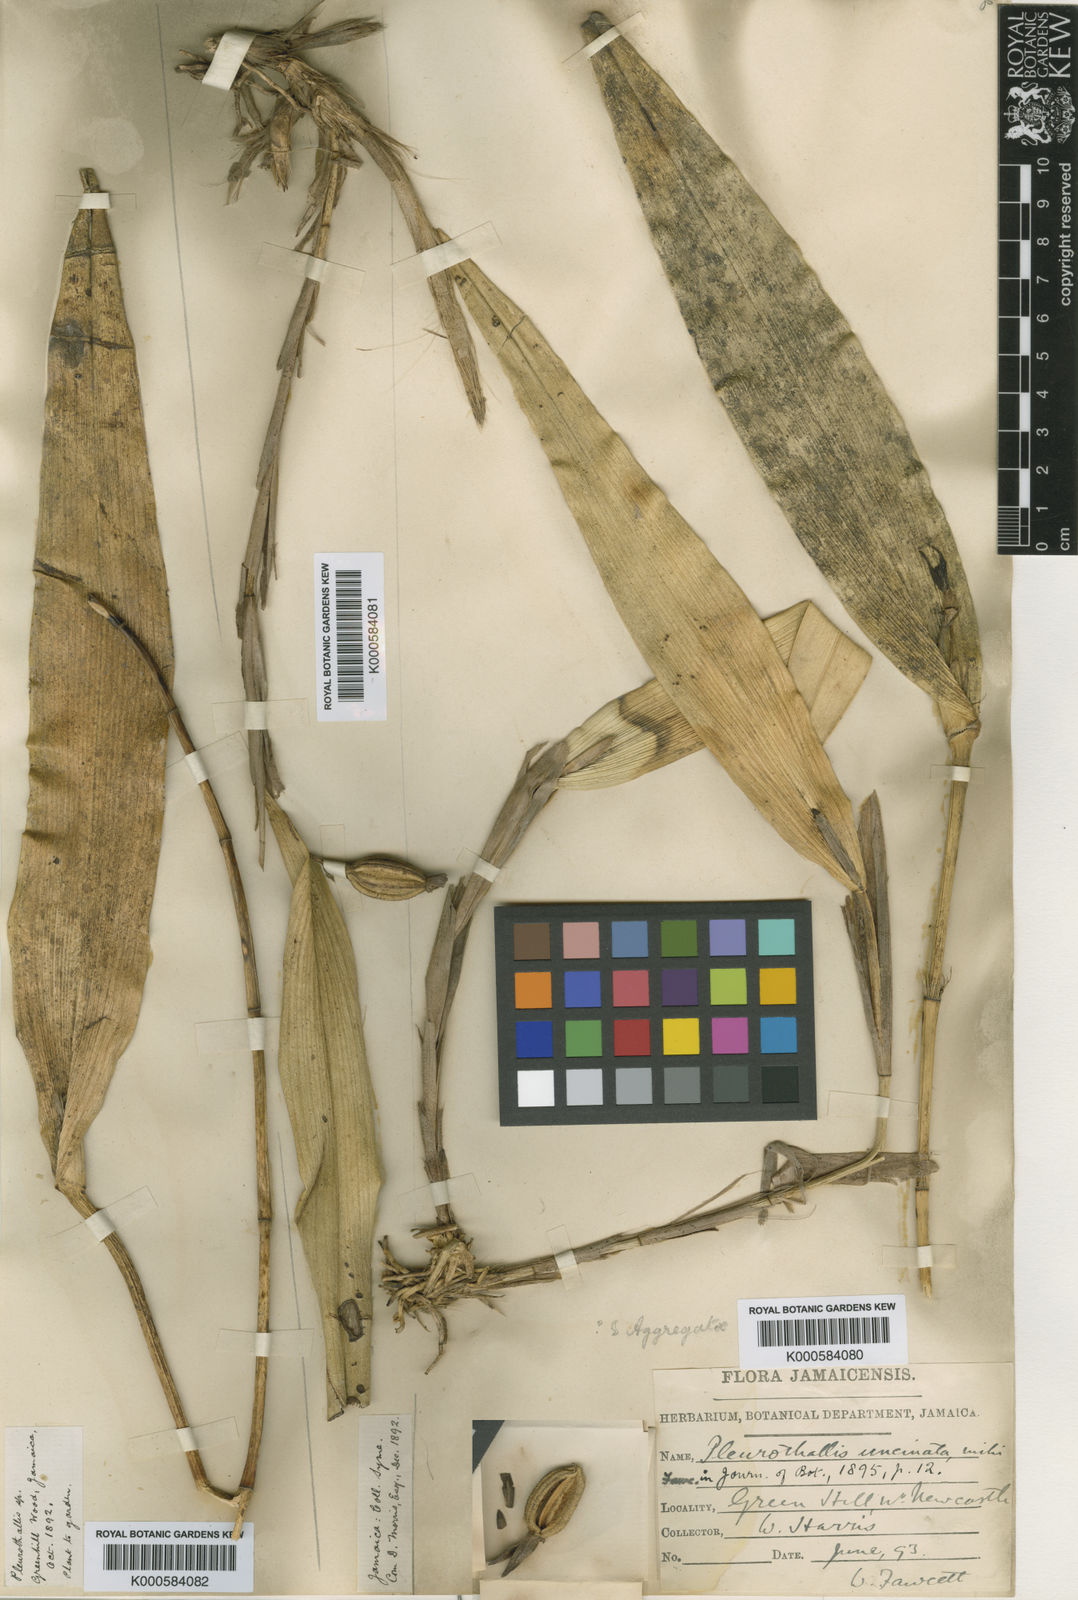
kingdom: Plantae
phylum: Tracheophyta
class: Liliopsida
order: Asparagales
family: Orchidaceae
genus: Echinosepala
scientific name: Echinosepala uncinata
